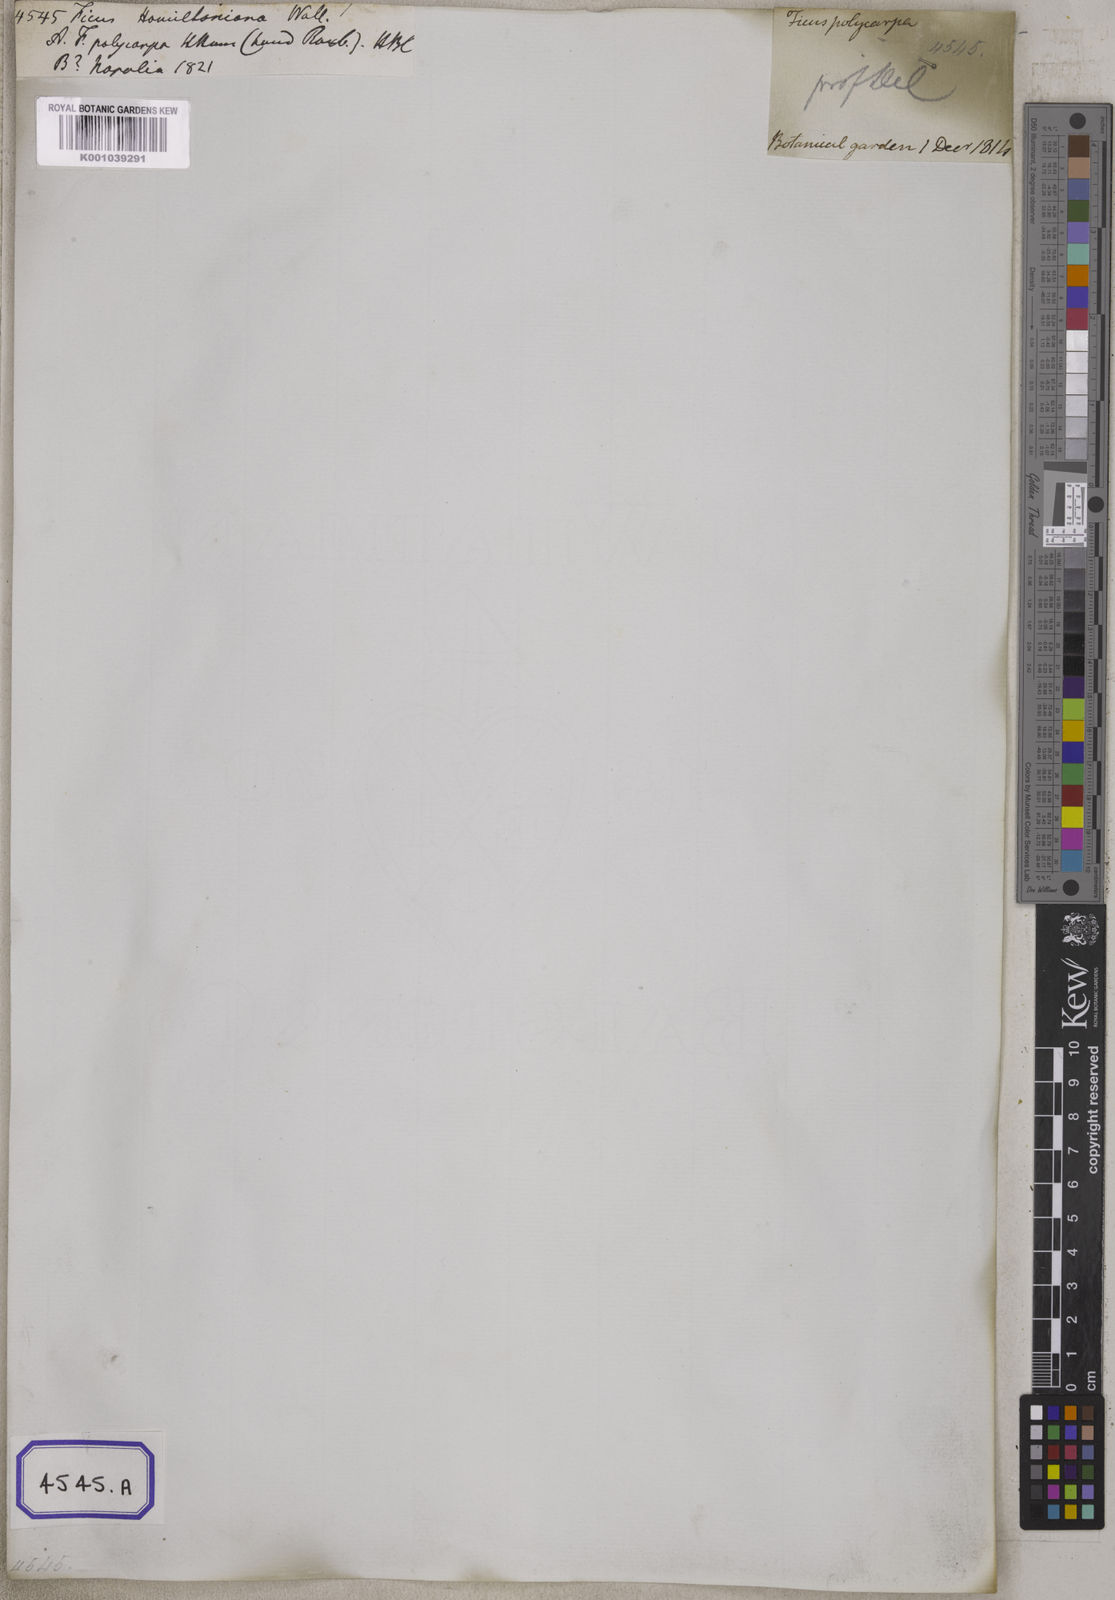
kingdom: Plantae
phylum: Tracheophyta
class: Magnoliopsida
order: Rosales
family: Moraceae
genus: Ficus
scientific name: Ficus auriculata
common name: Roxburgh fig
